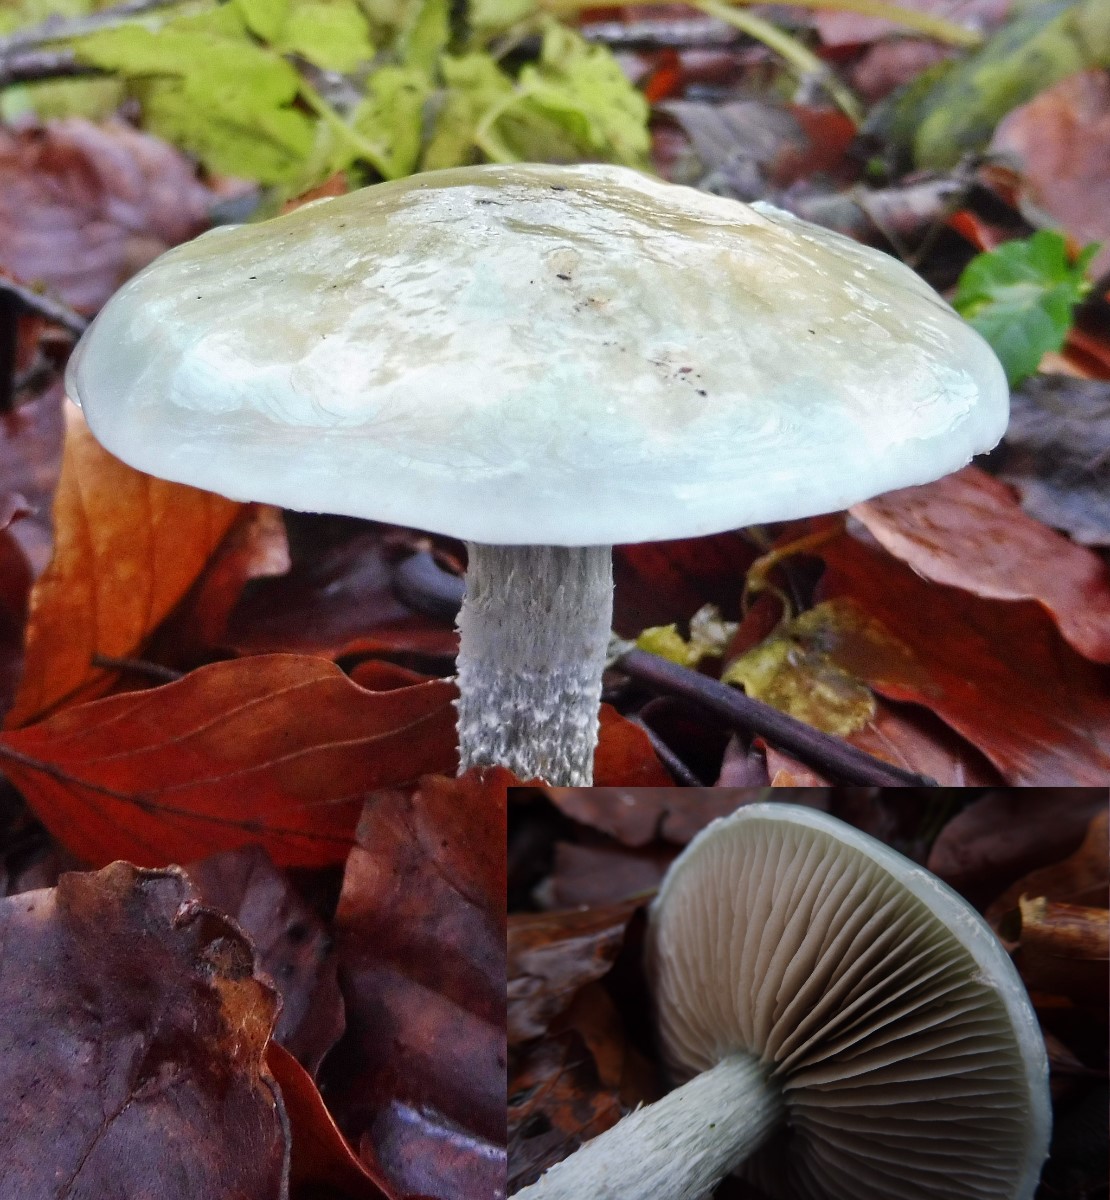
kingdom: Fungi
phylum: Basidiomycota
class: Agaricomycetes
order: Agaricales
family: Strophariaceae
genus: Stropharia
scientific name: Stropharia cyanea
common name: blågrøn bredblad
